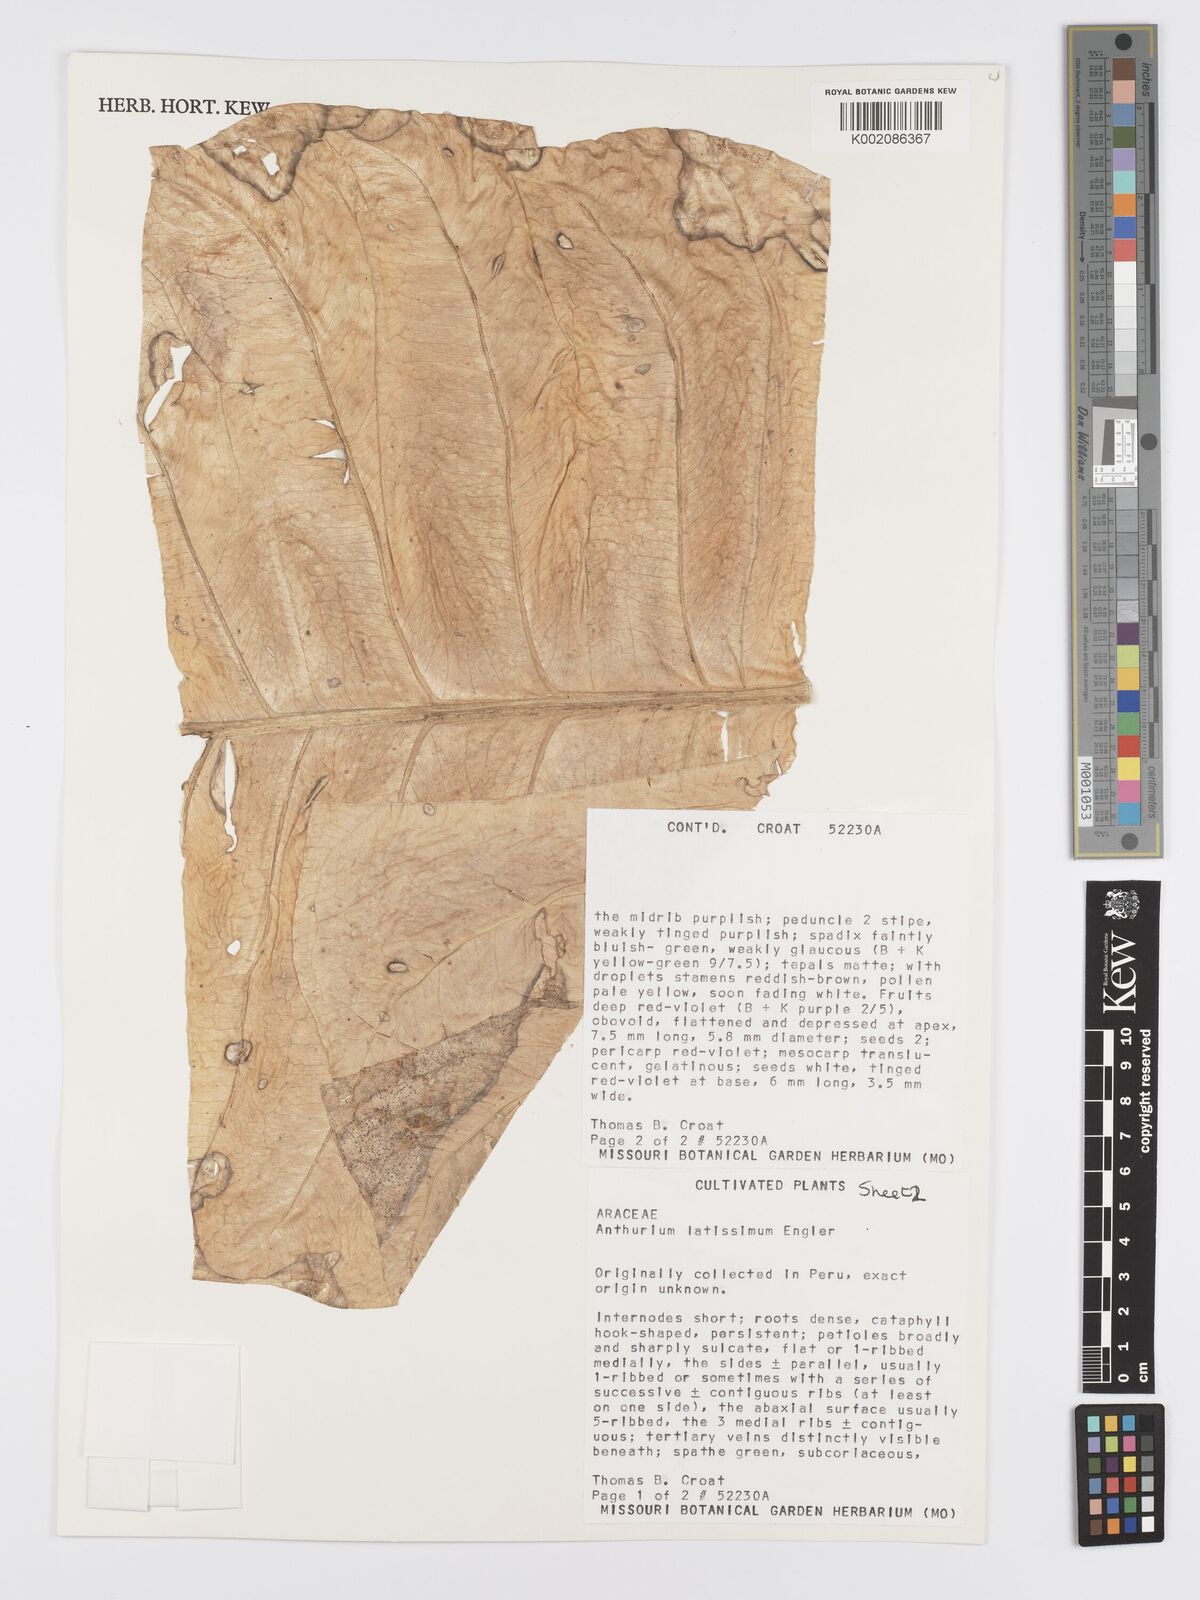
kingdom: Plantae
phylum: Tracheophyta
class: Liliopsida
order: Alismatales
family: Araceae
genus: Anthurium
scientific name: Anthurium latissimum
